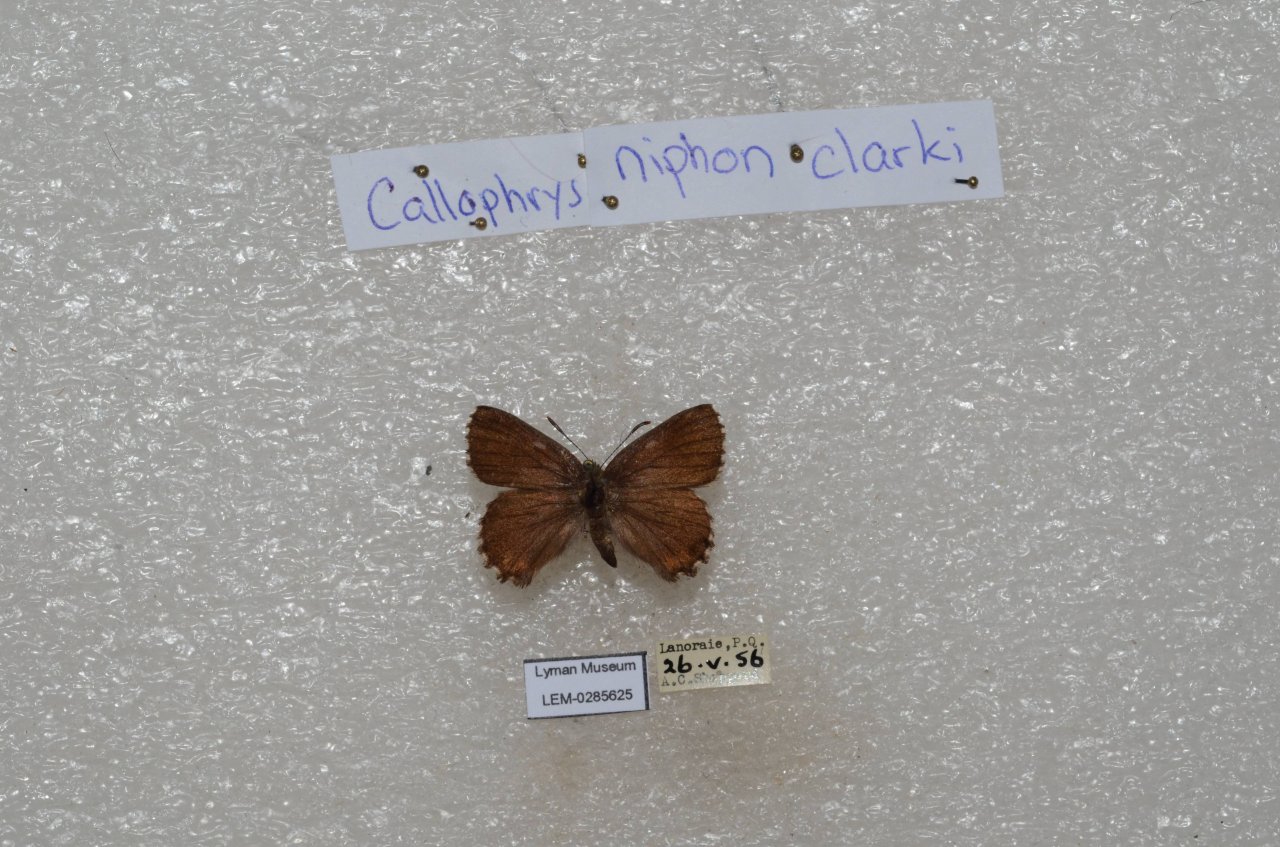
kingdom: Animalia
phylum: Arthropoda
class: Insecta
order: Lepidoptera
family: Lycaenidae
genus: Incisalia
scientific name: Incisalia niphon
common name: Eastern Pine Elfin
